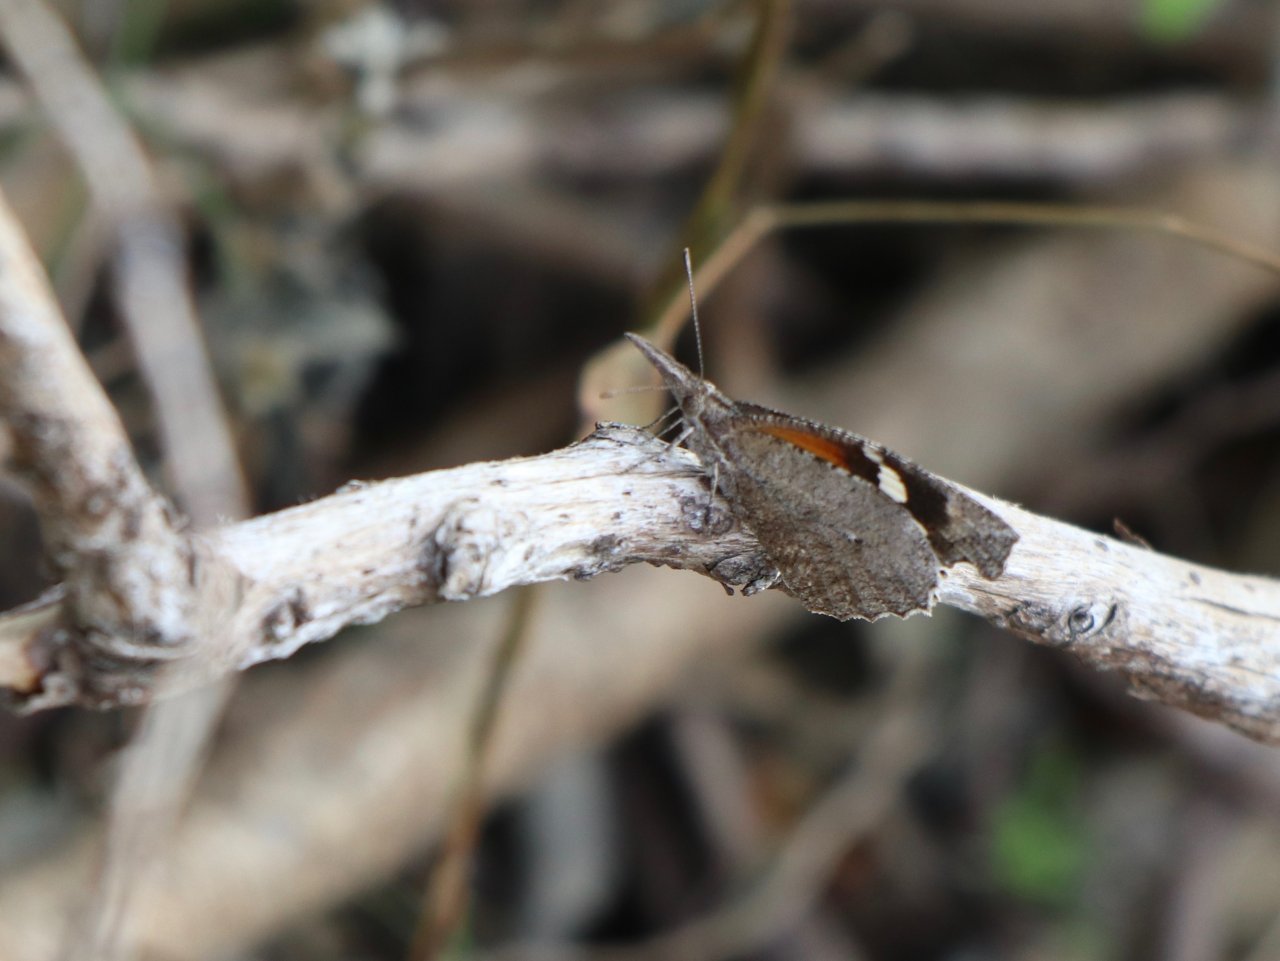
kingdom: Animalia
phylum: Arthropoda
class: Insecta
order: Lepidoptera
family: Nymphalidae
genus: Libytheana
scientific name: Libytheana carinenta
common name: American Snout
